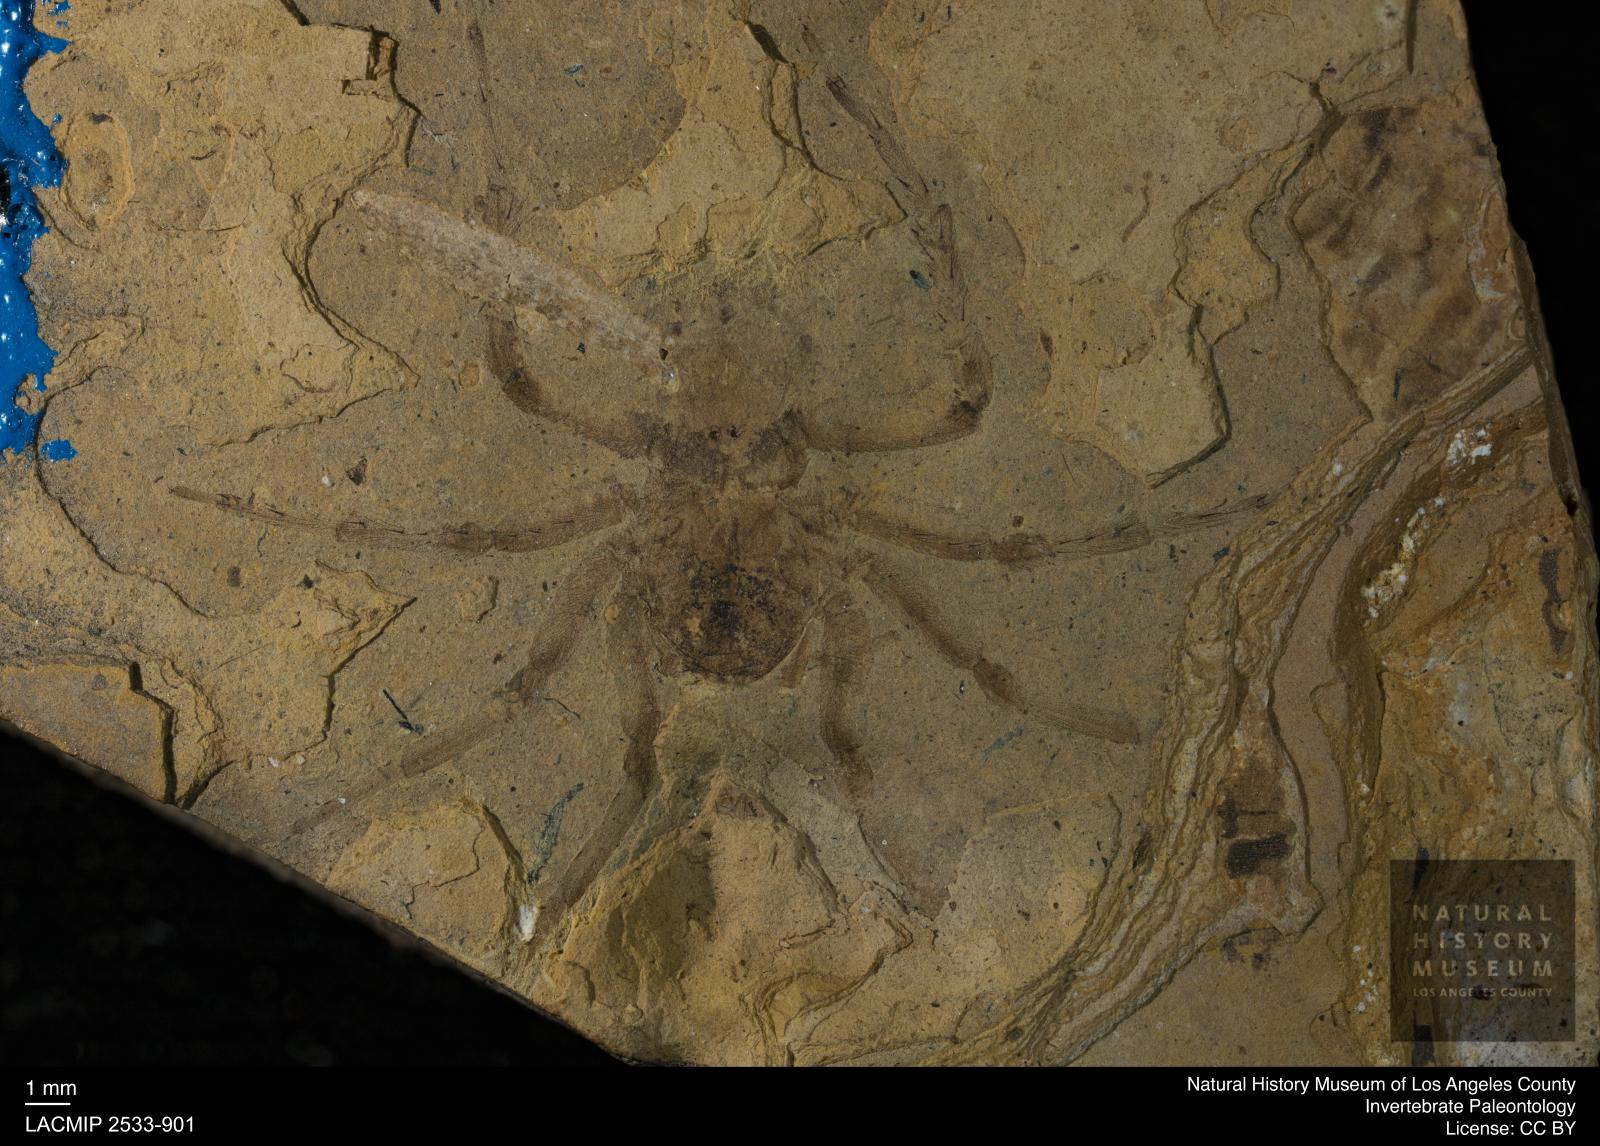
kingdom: Animalia
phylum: Arthropoda
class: Arachnida
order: Araneae
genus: Elvina
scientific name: Elvina Argyroneta antiqua
